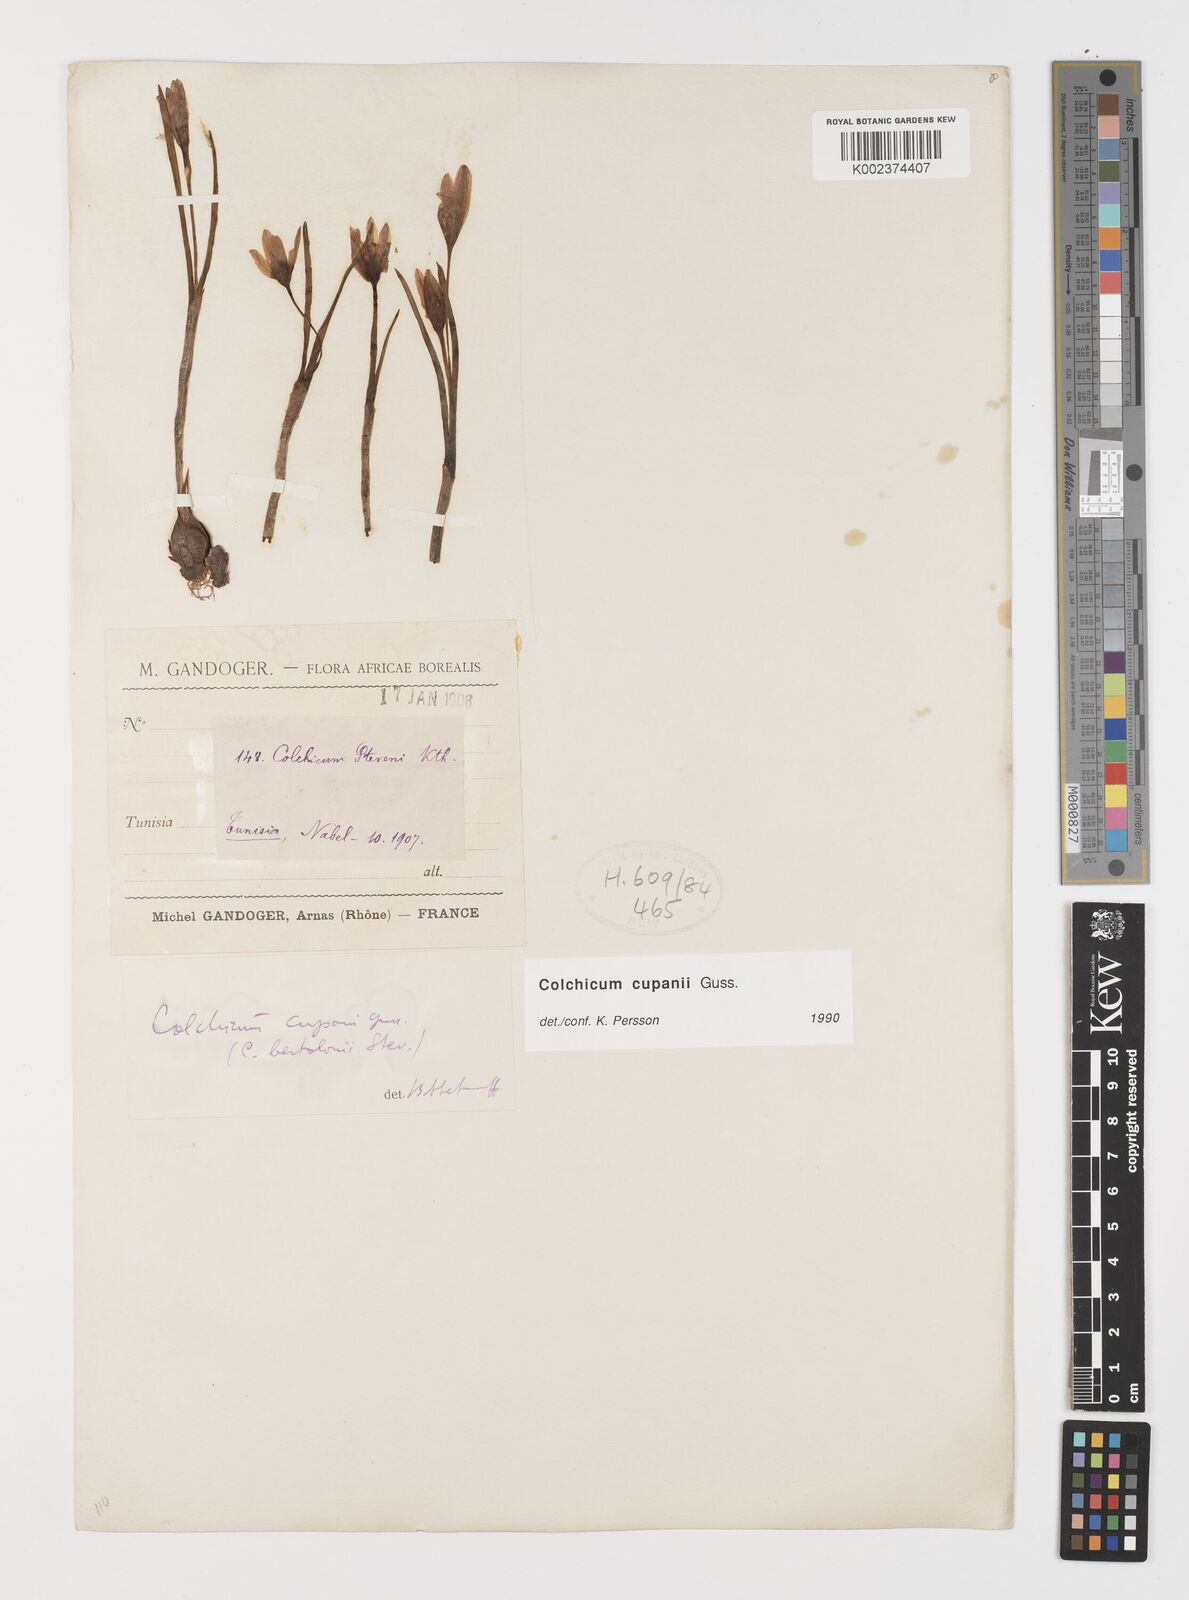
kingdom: Plantae
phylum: Tracheophyta
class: Liliopsida
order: Liliales
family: Colchicaceae
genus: Colchicum
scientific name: Colchicum cupanii
